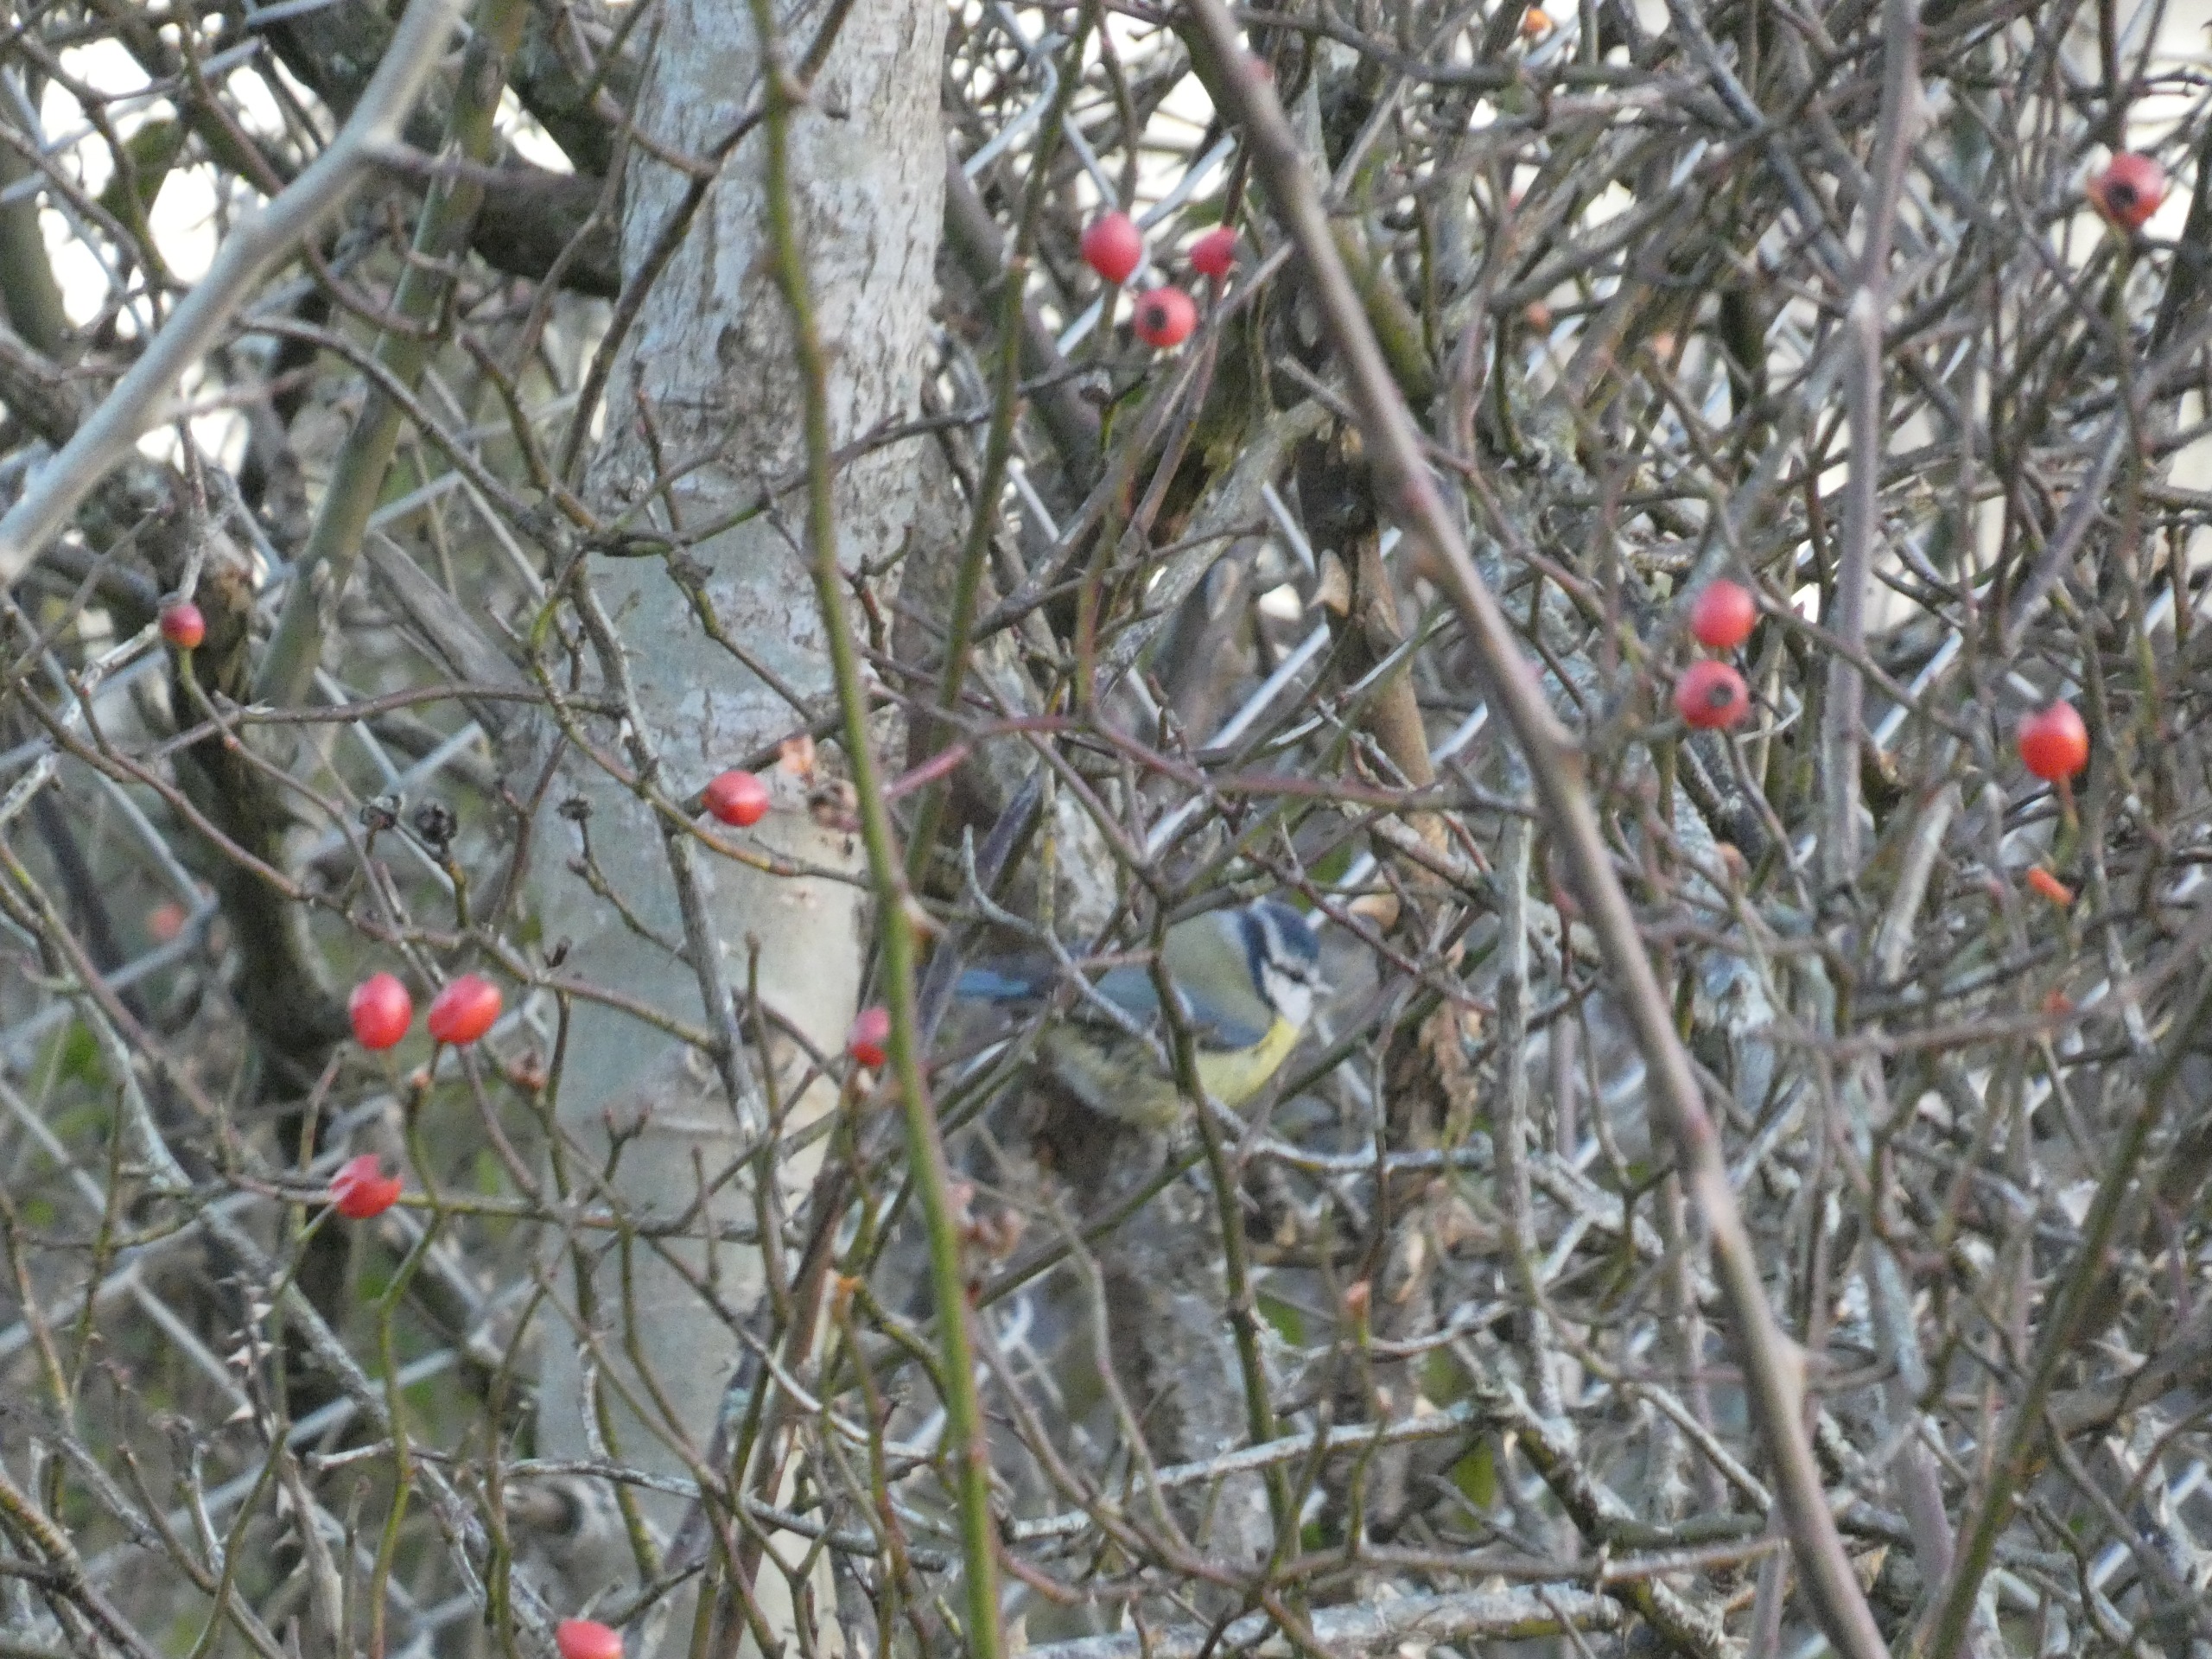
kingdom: Animalia
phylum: Chordata
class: Aves
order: Passeriformes
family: Paridae
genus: Cyanistes
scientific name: Cyanistes caeruleus
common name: Blåmejse
